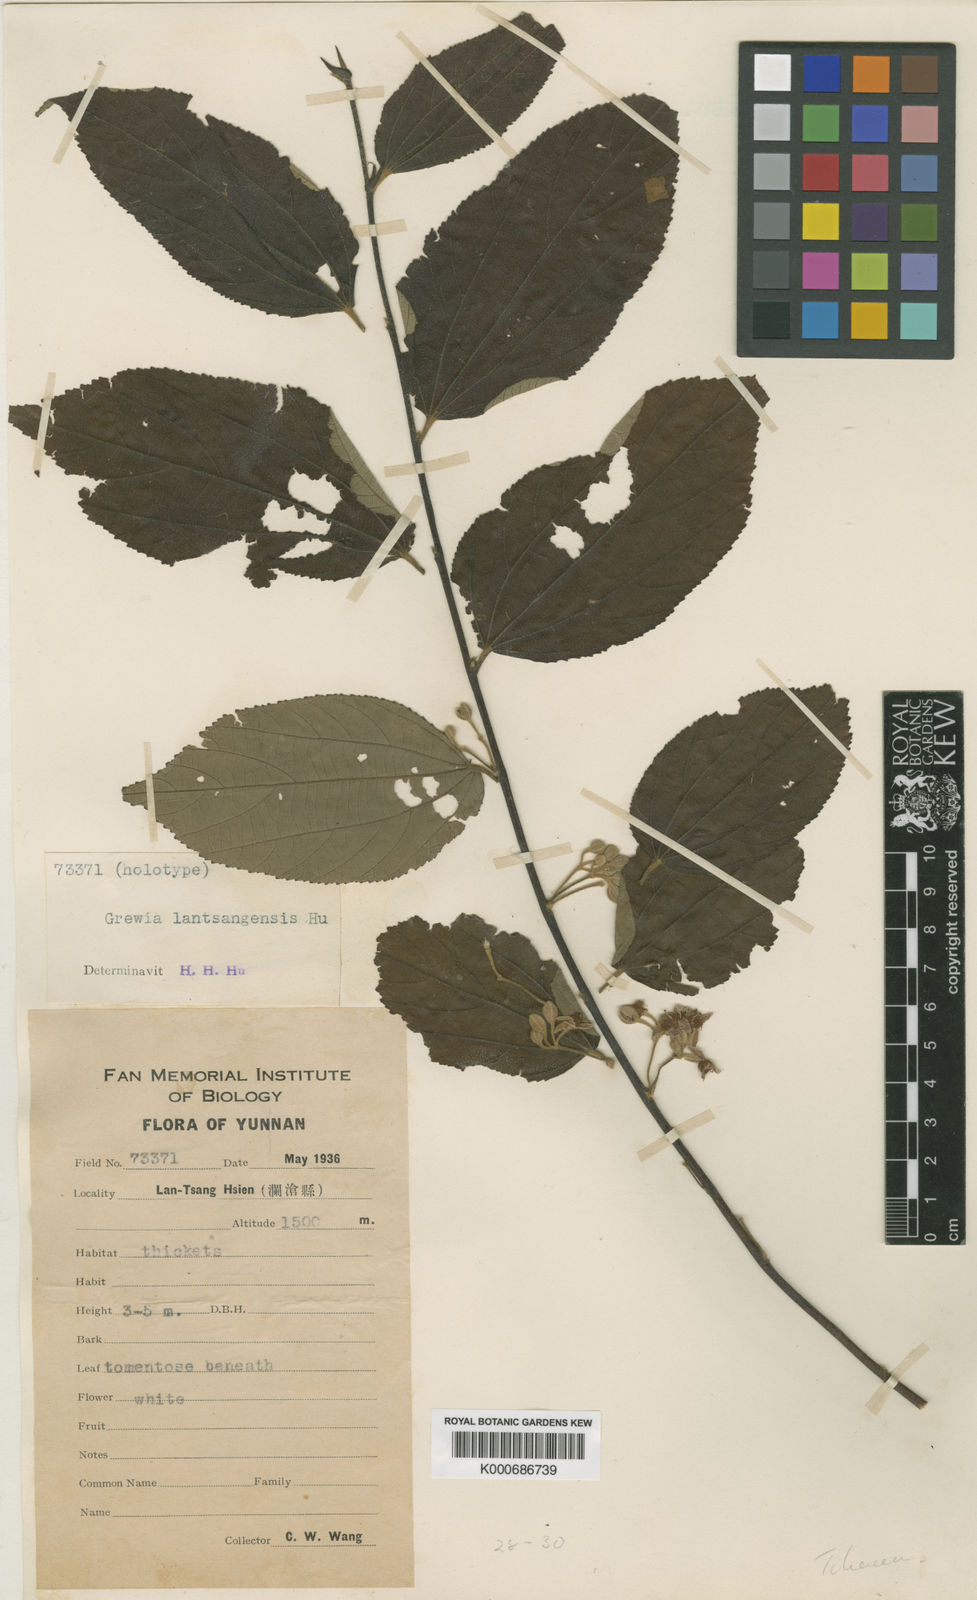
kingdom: Plantae
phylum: Tracheophyta
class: Magnoliopsida
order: Malvales
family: Malvaceae
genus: Grewia
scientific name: Grewia eriocarpa
